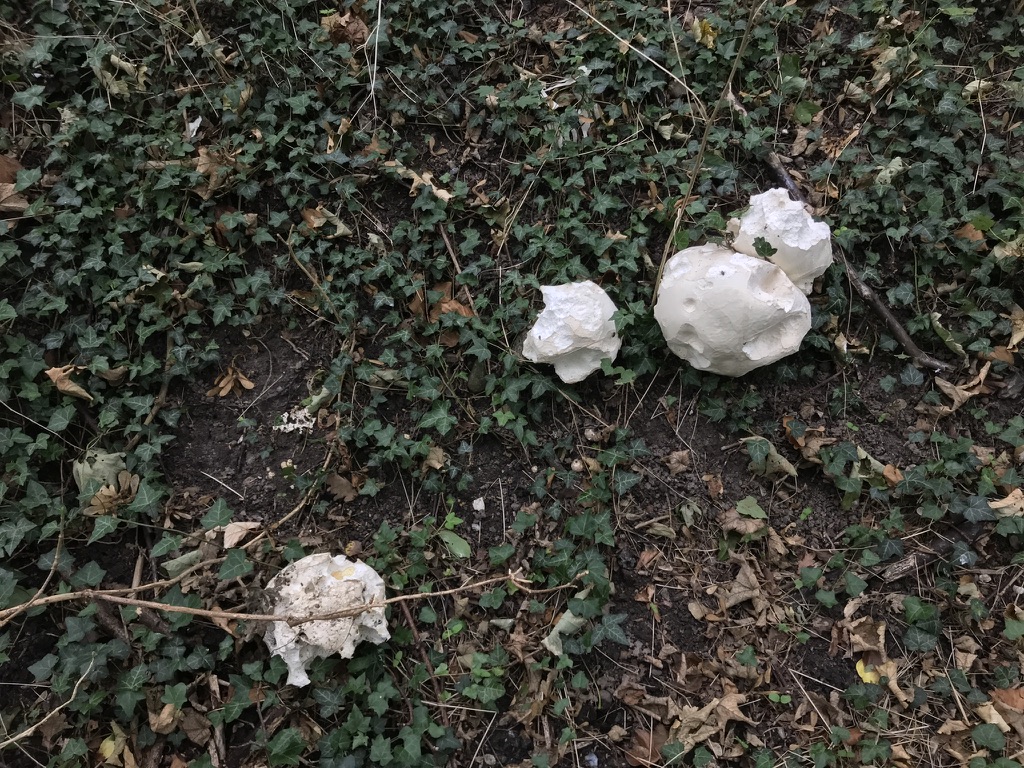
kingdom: Fungi
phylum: Basidiomycota
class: Agaricomycetes
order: Agaricales
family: Lycoperdaceae
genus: Calvatia
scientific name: Calvatia gigantea
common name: kæmpestøvbold
